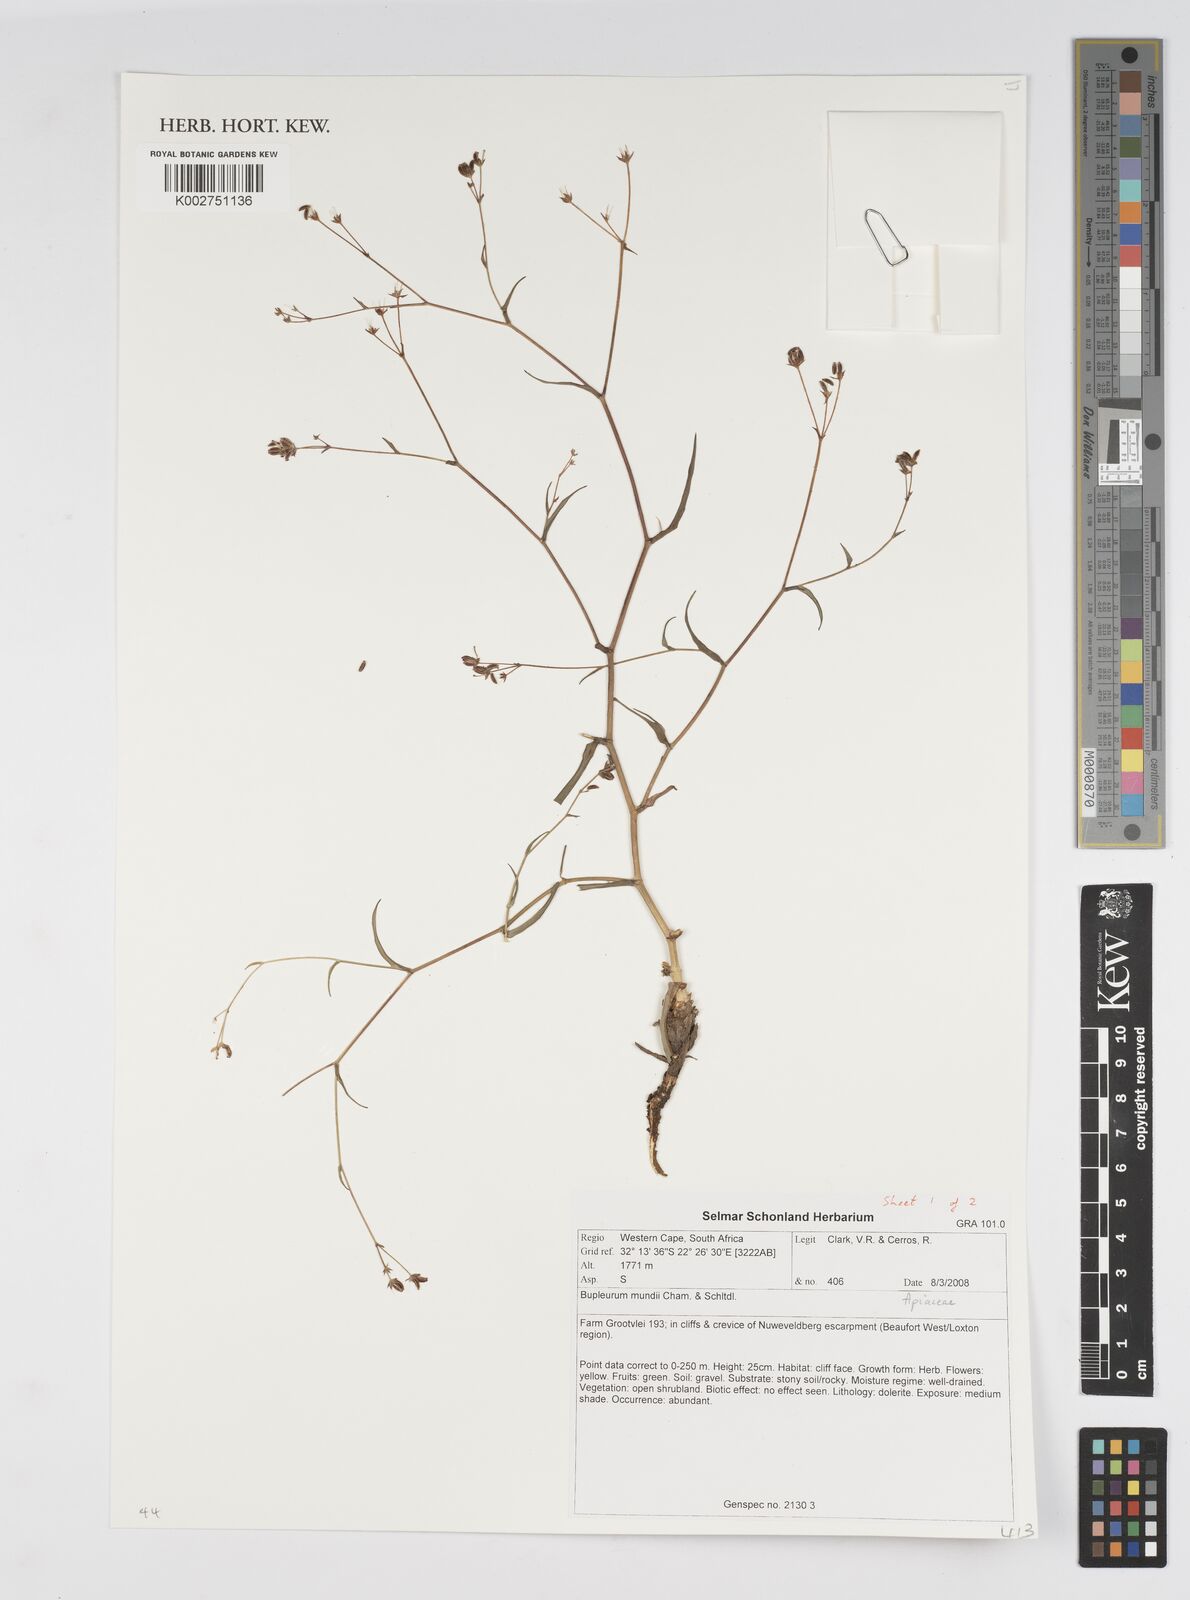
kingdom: Plantae
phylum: Tracheophyta
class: Magnoliopsida
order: Apiales
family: Apiaceae
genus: Bupleurum
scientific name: Bupleurum mundii
